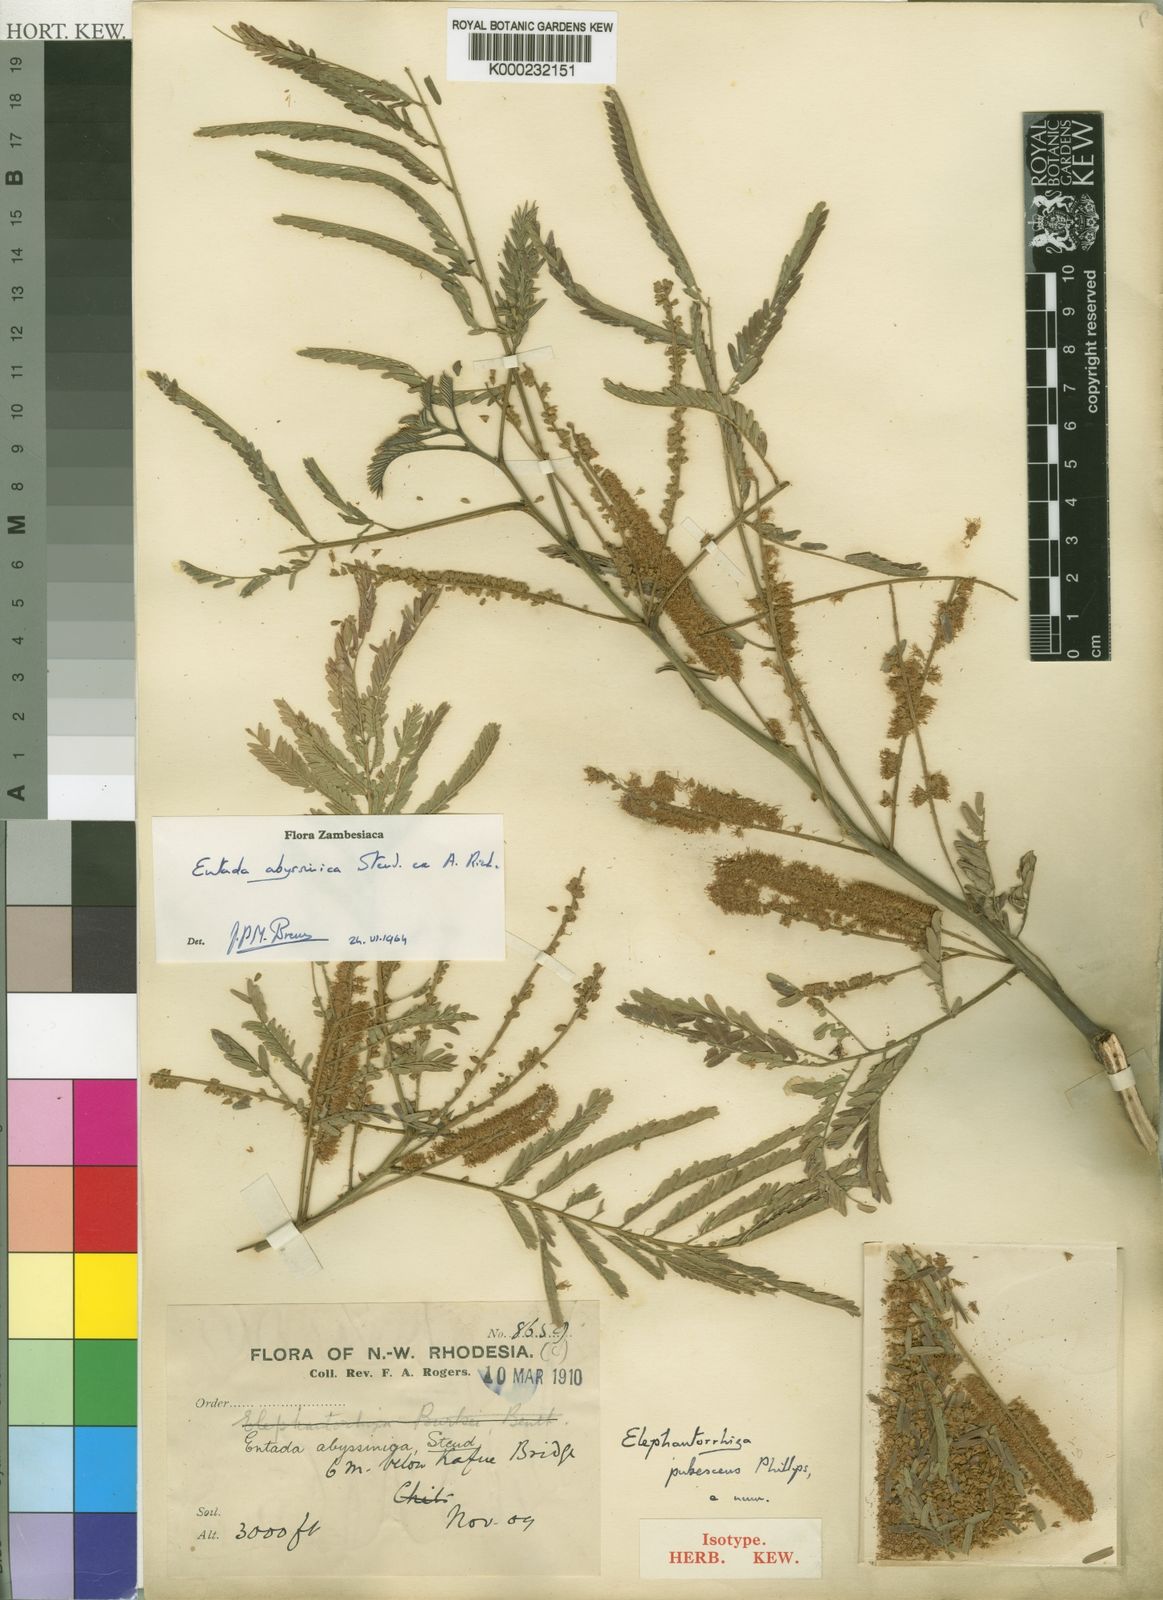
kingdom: Plantae
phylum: Tracheophyta
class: Magnoliopsida
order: Fabales
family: Fabaceae
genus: Entada
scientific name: Entada abyssinica
